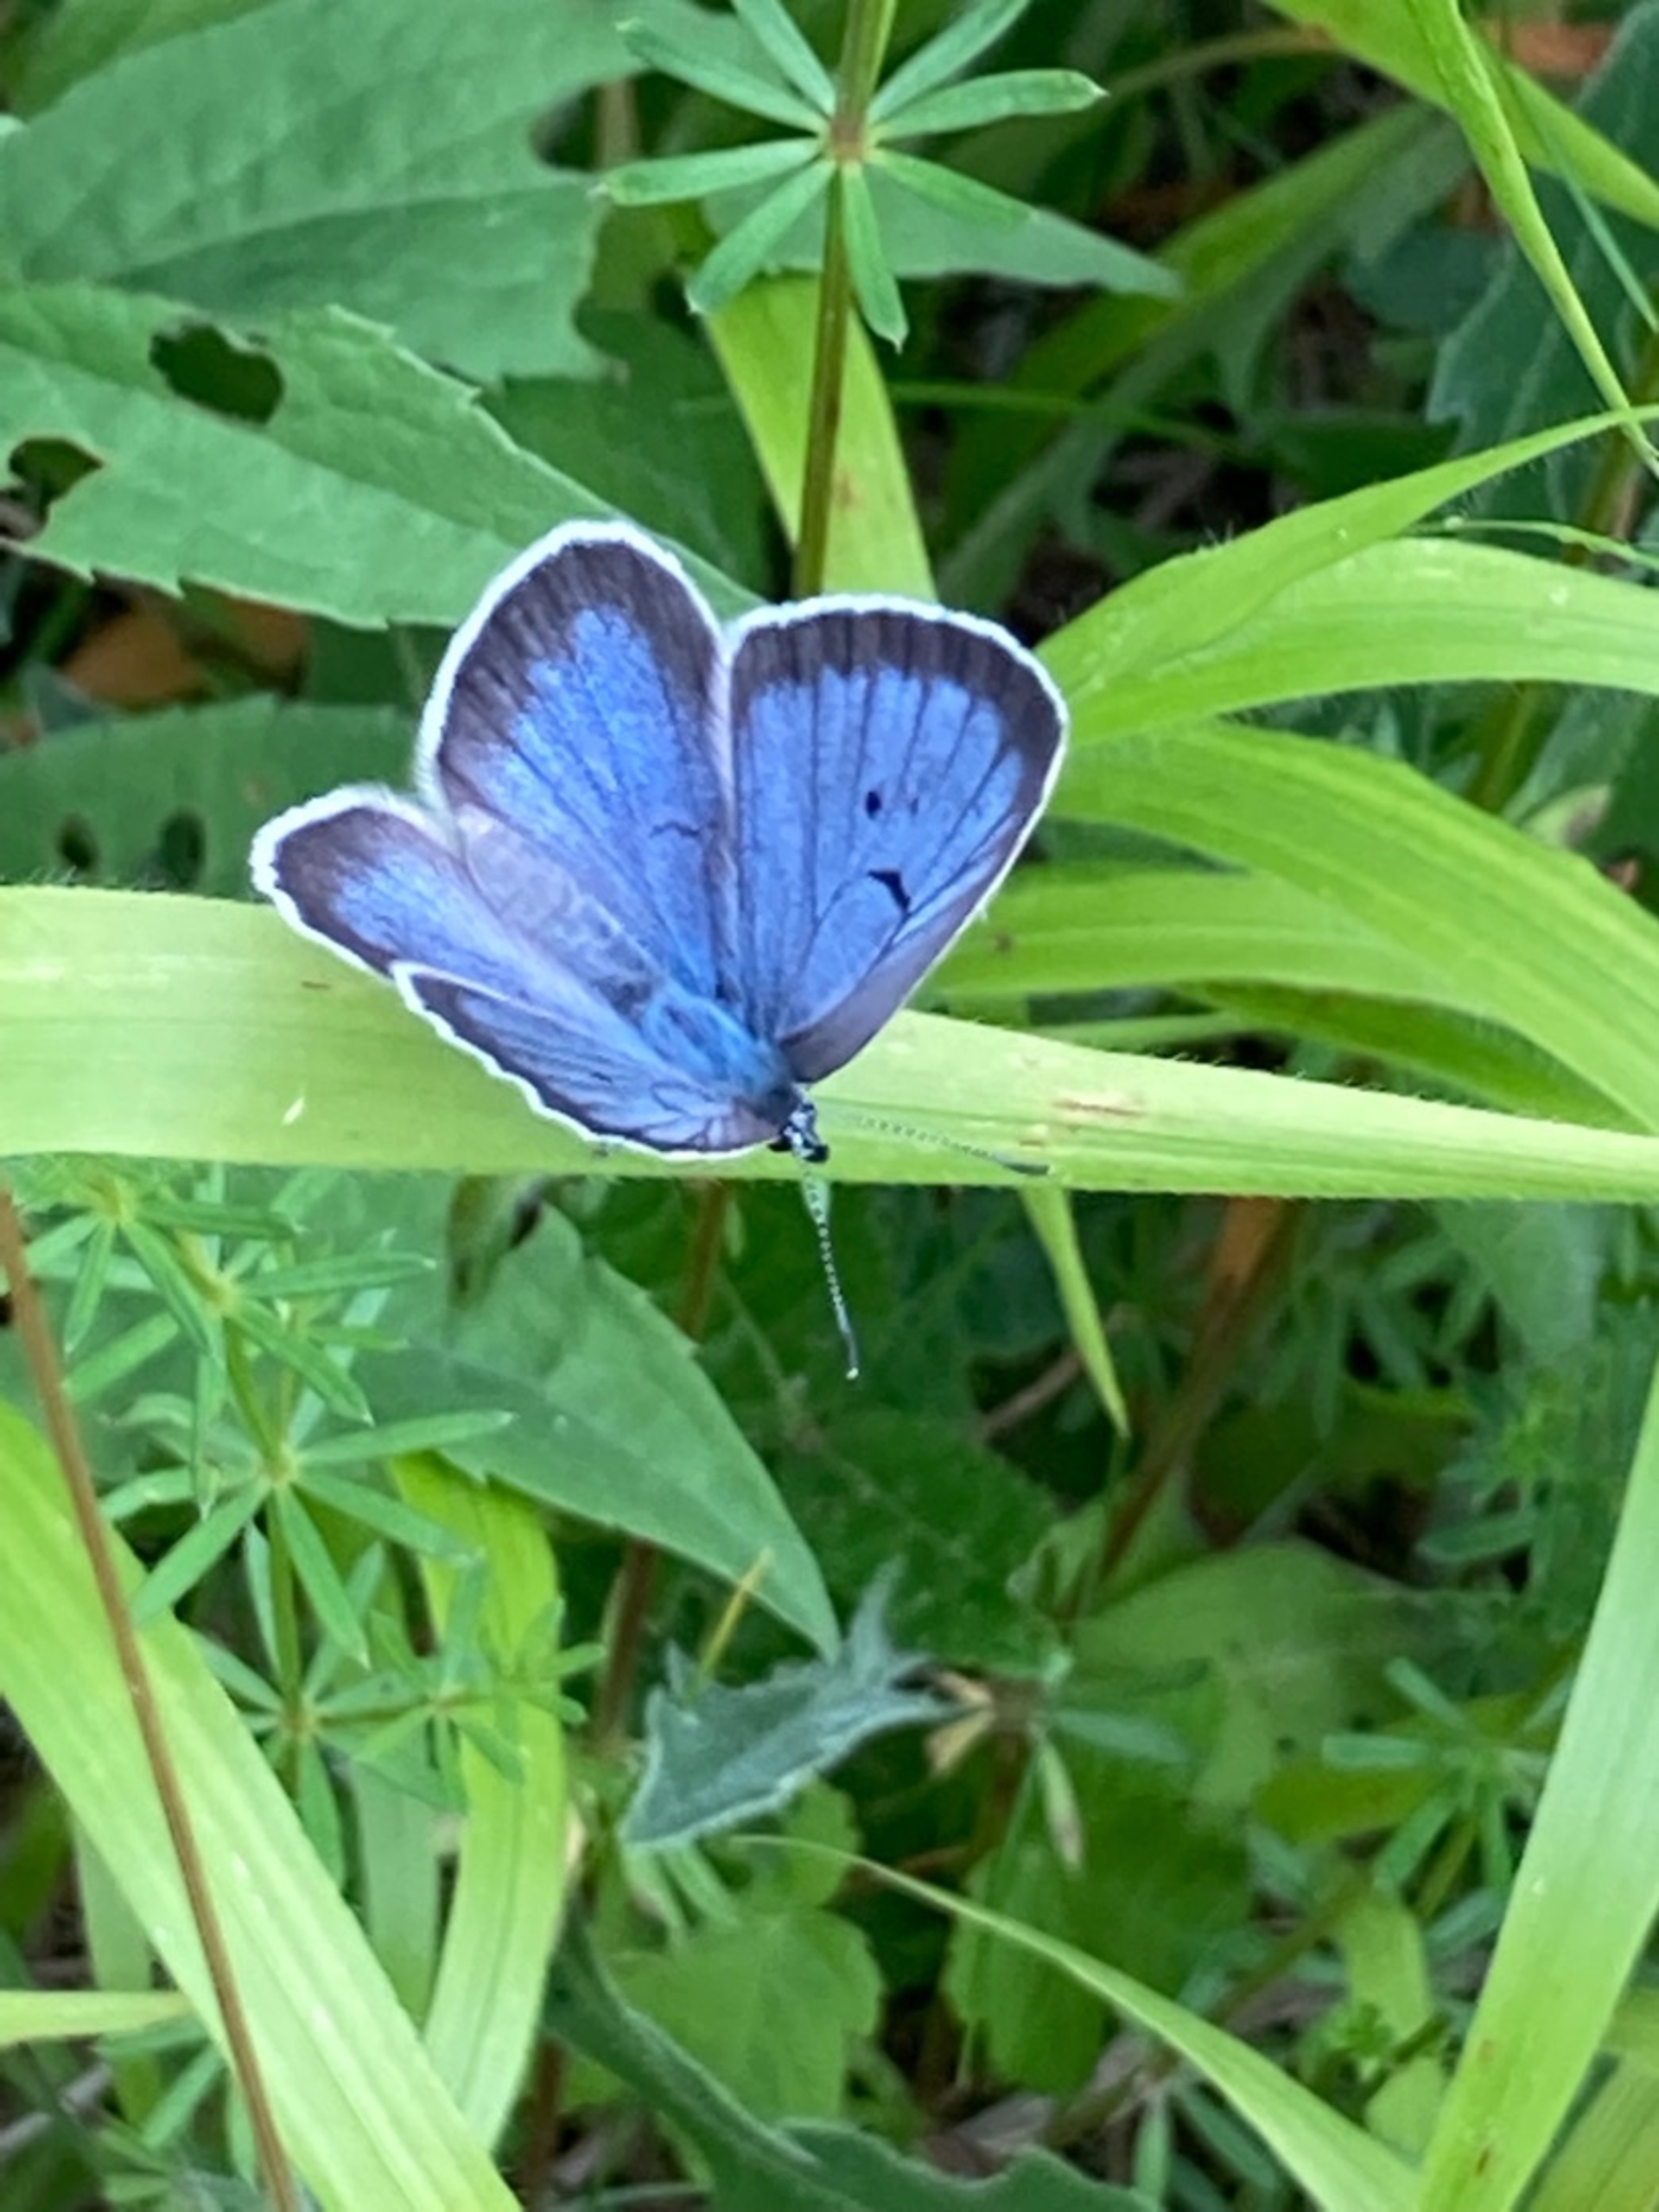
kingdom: Animalia
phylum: Arthropoda
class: Insecta
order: Lepidoptera
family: Lycaenidae
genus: Maculinea
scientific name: Maculinea arion
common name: Sortplettet blåfugl
